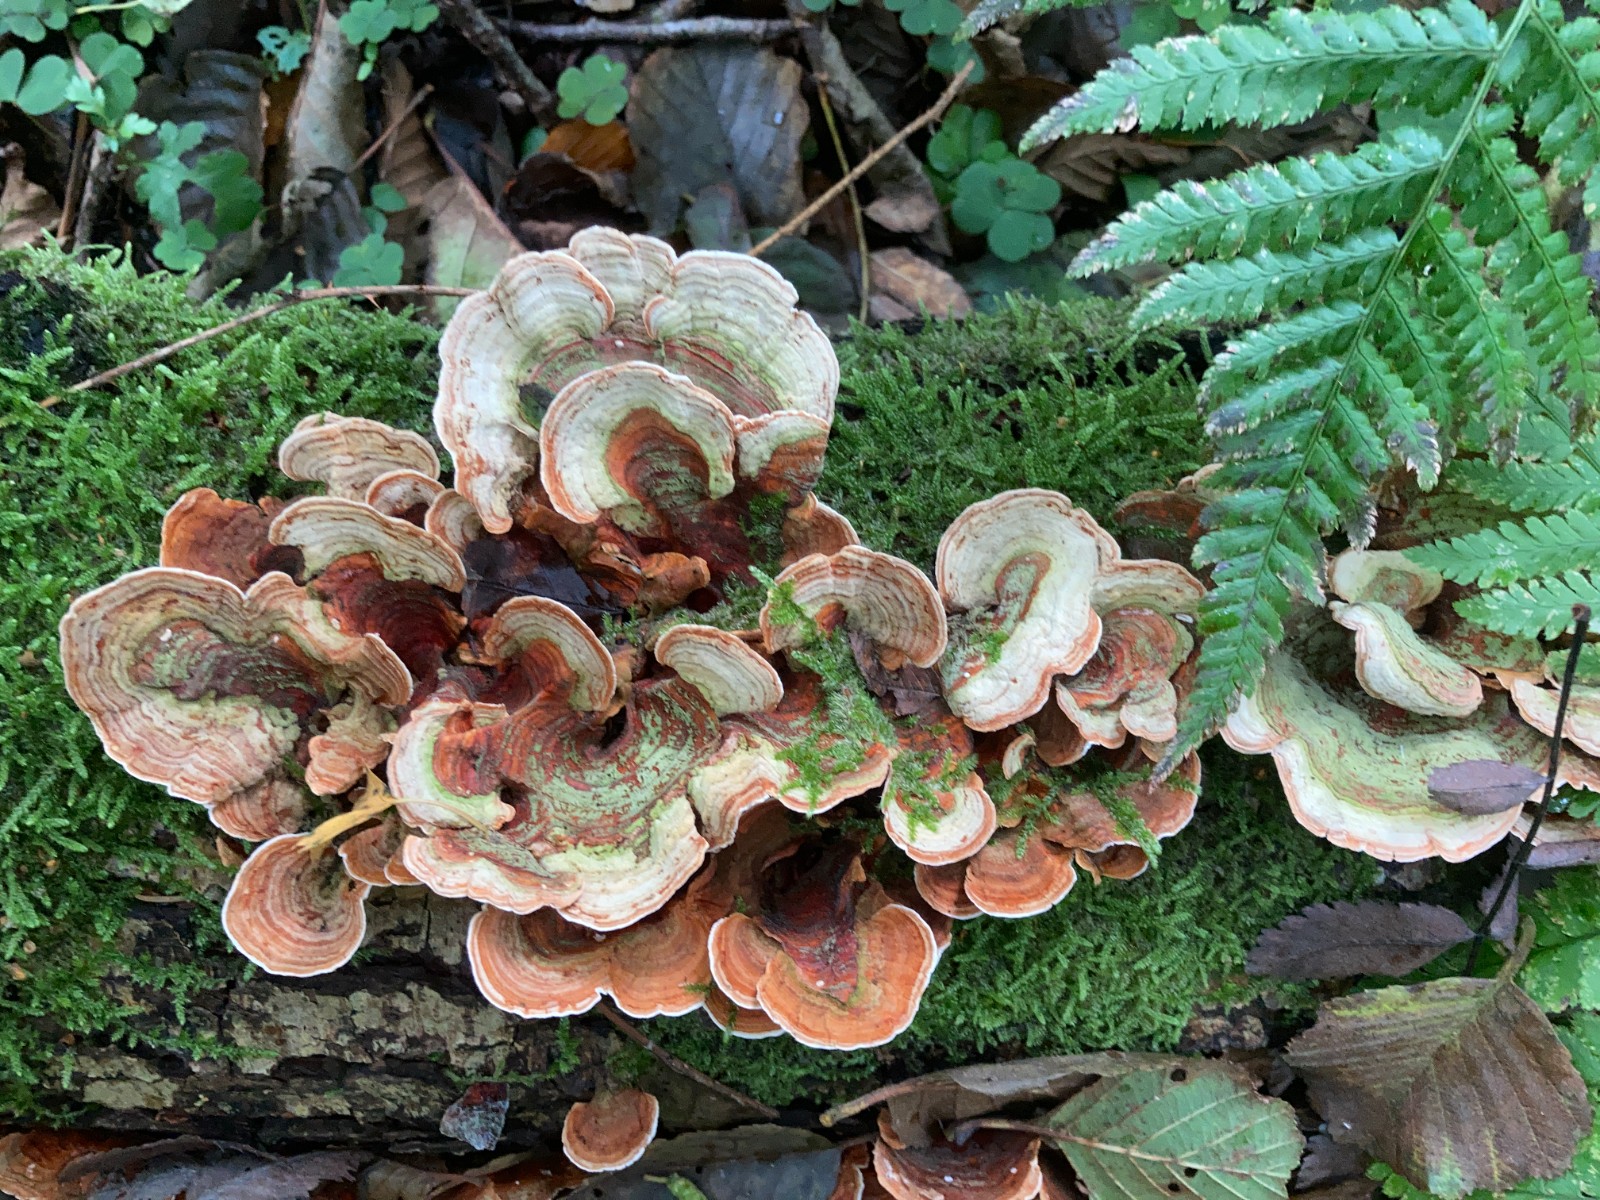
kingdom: Fungi
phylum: Basidiomycota
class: Agaricomycetes
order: Russulales
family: Stereaceae
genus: Stereum
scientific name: Stereum subtomentosum
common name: smuk lædersvamp
